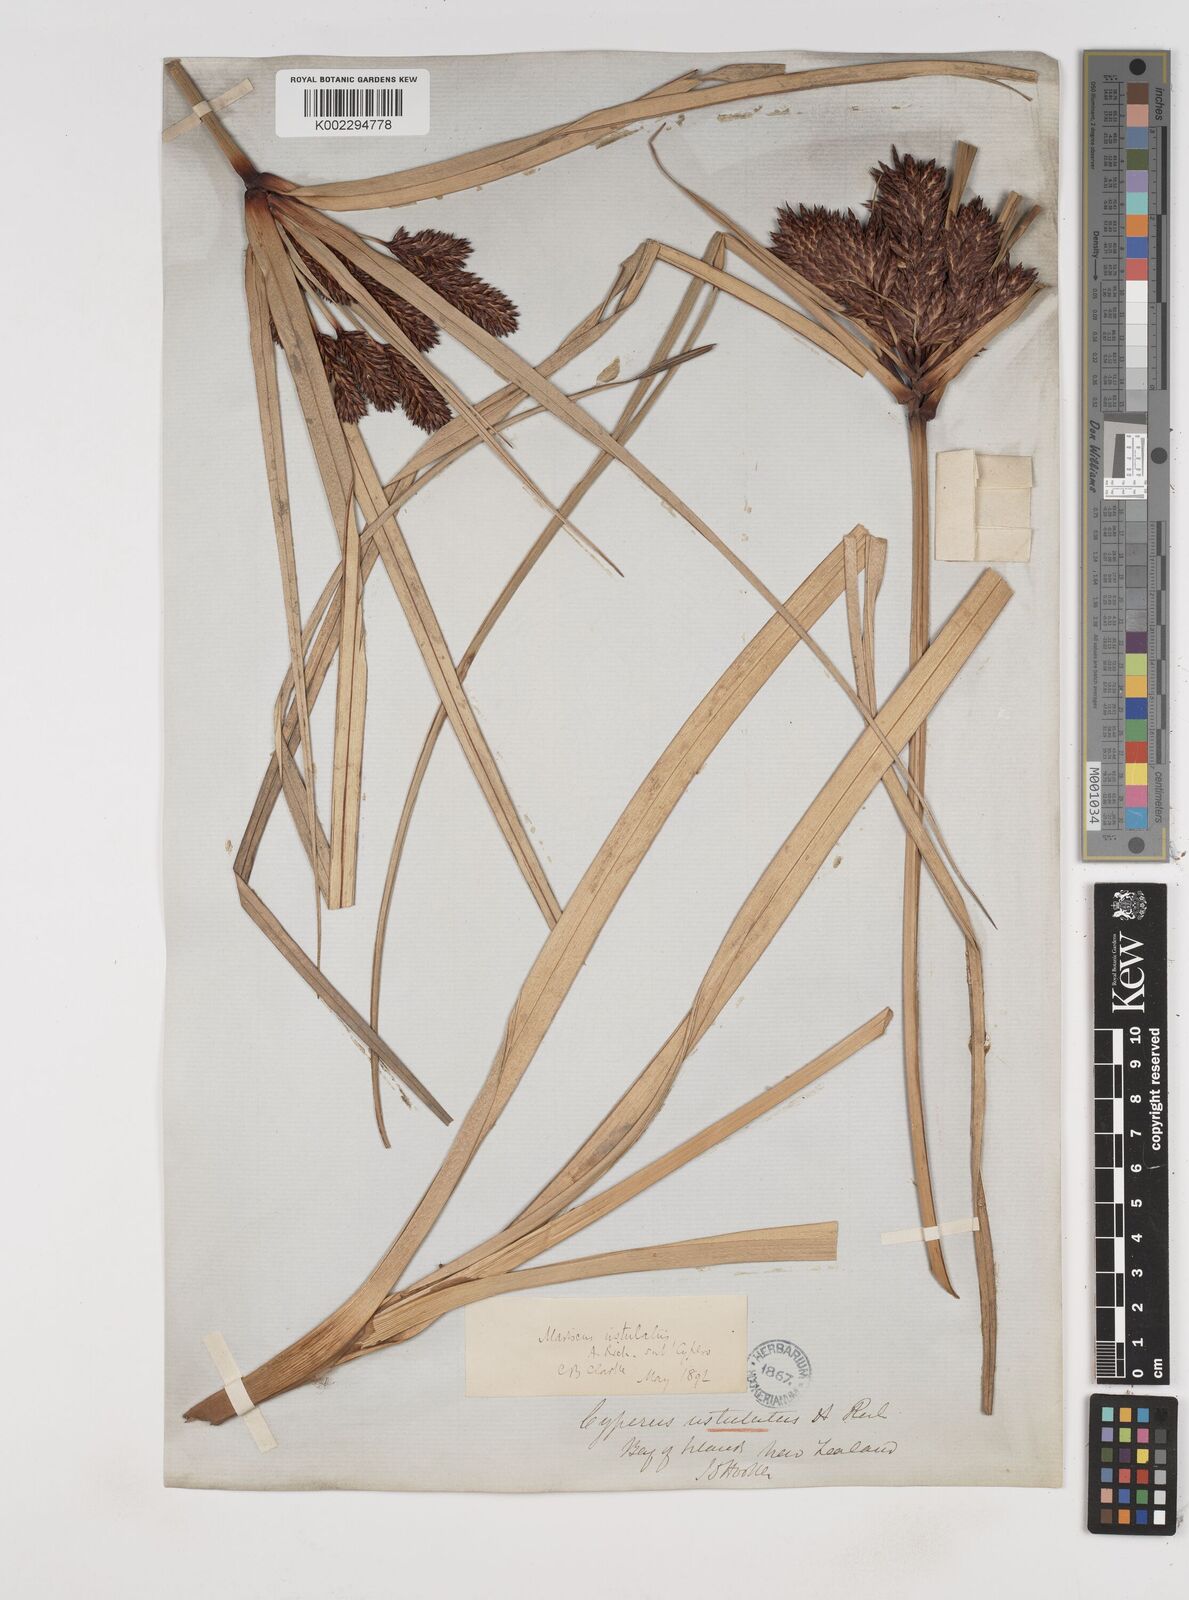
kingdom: Plantae
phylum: Tracheophyta
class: Liliopsida
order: Poales
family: Cyperaceae
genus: Cyperus
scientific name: Cyperus ustulatus
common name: Giant umbrella-sedge
